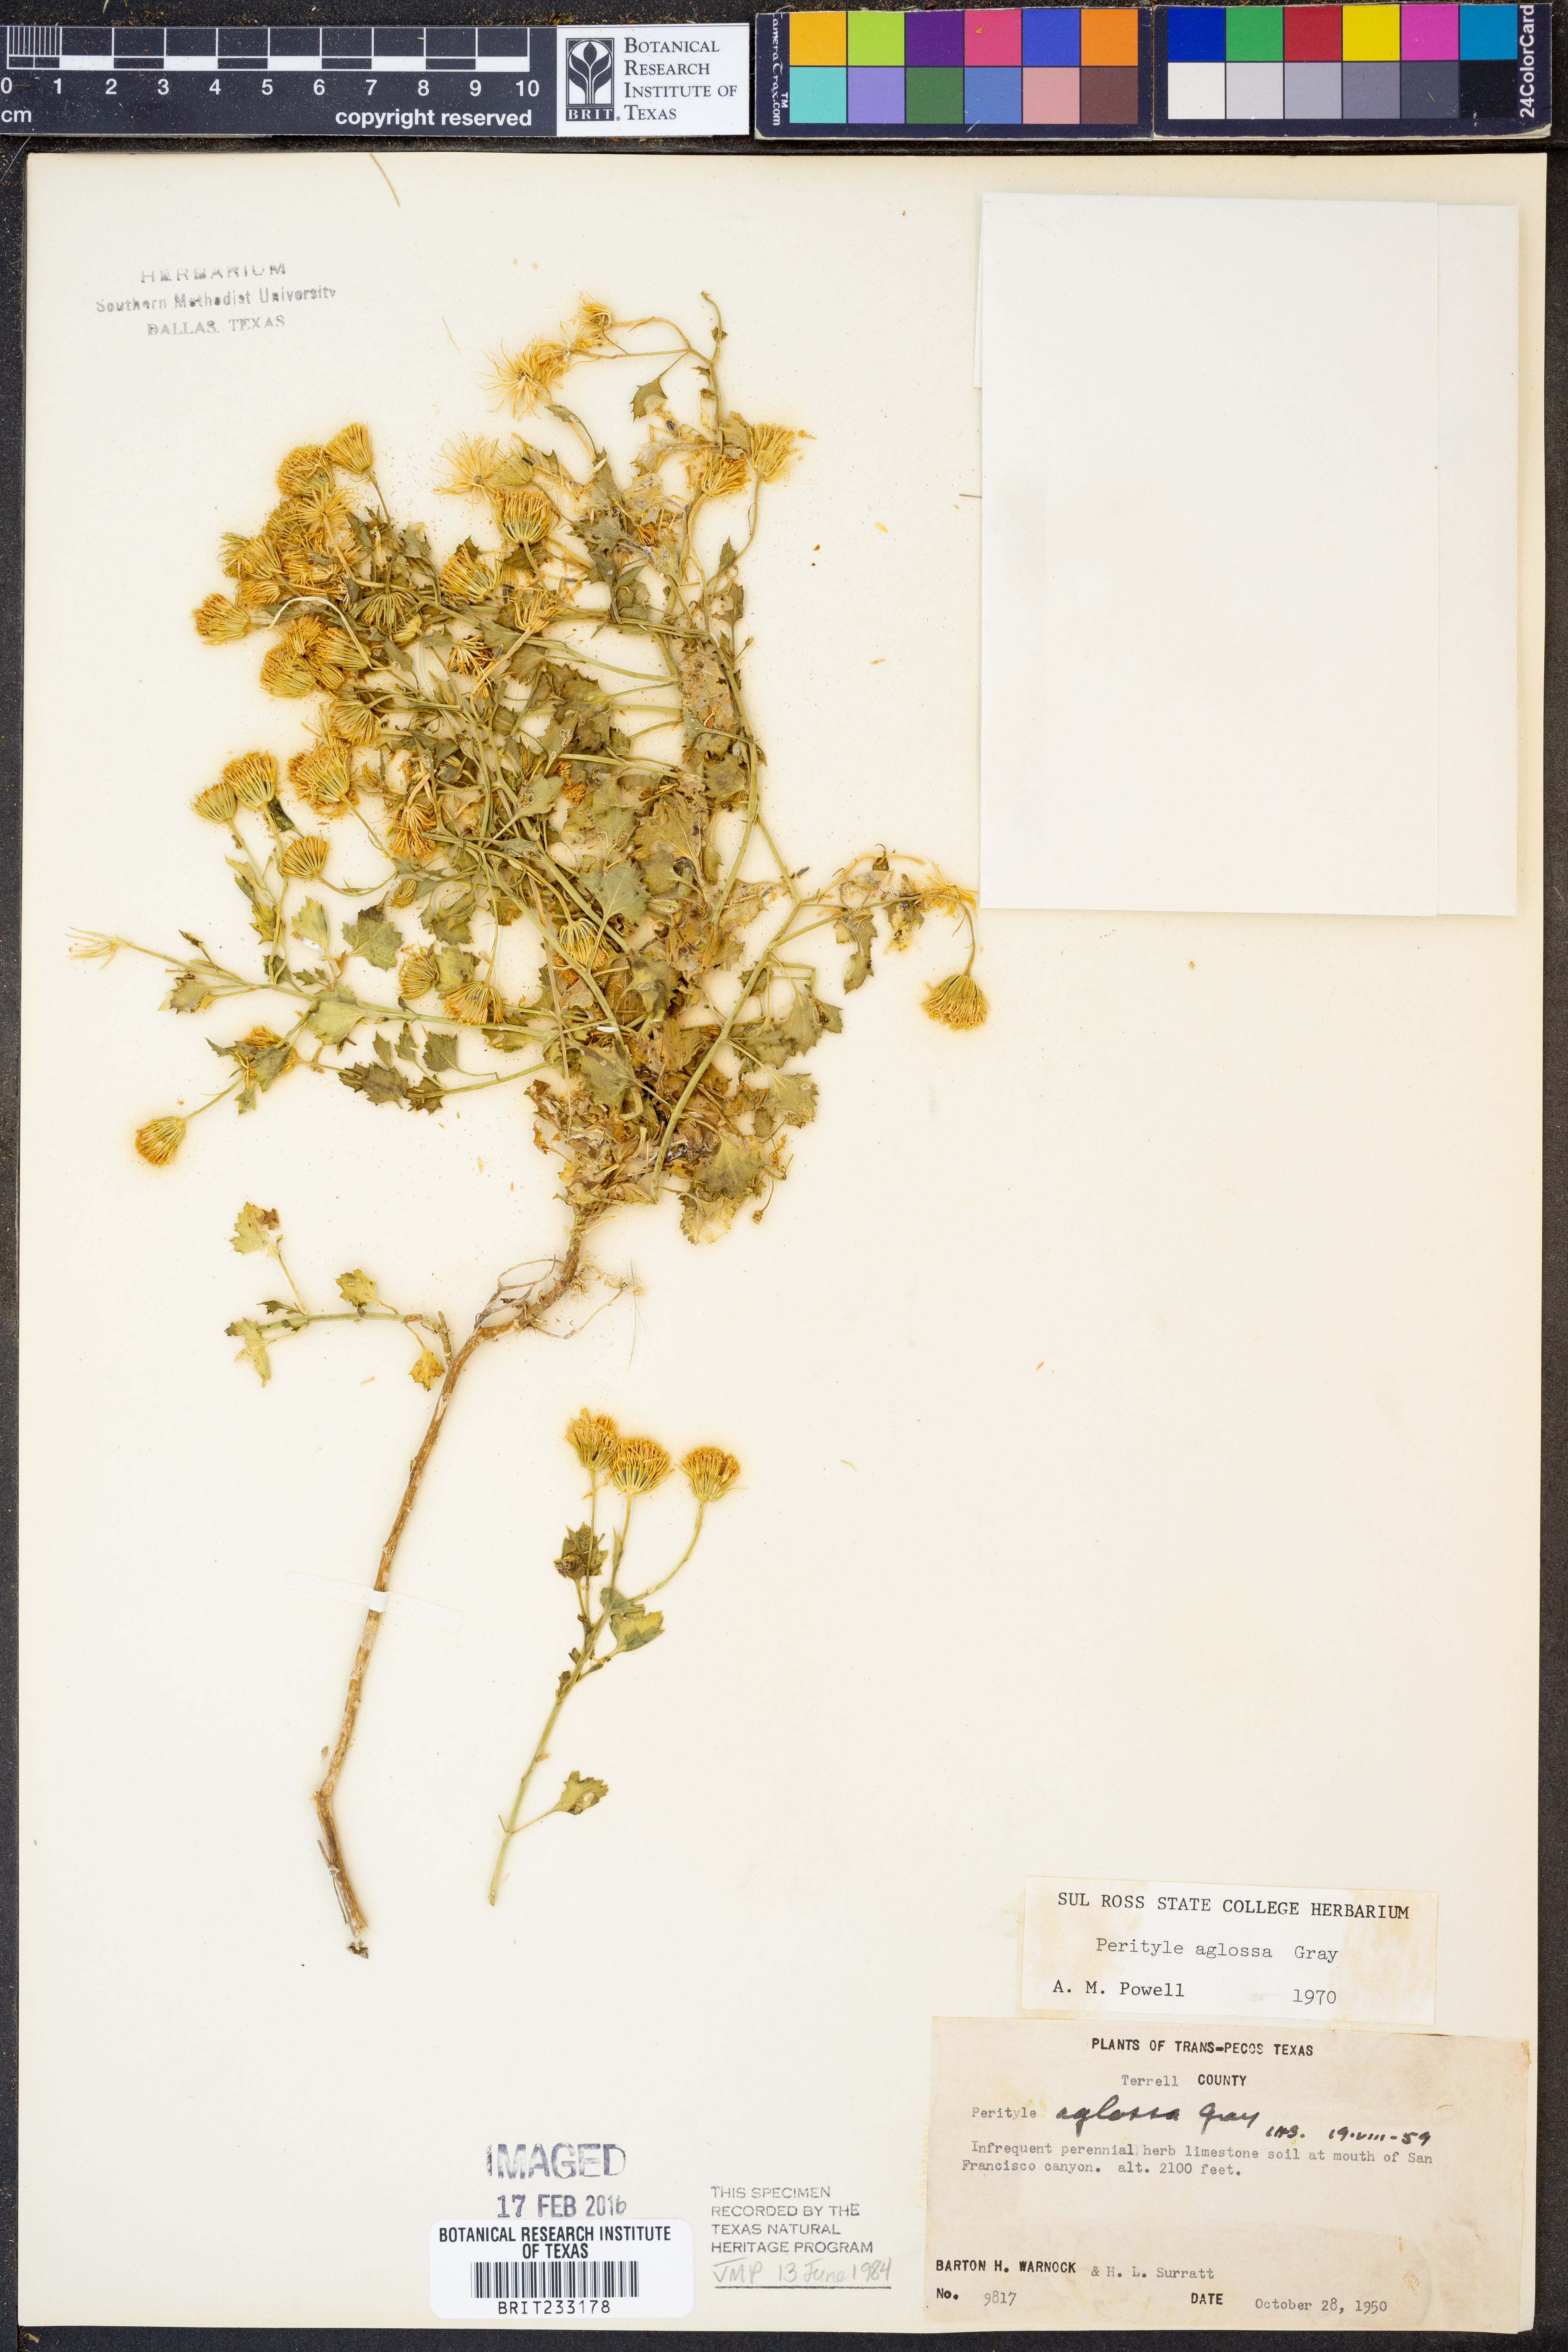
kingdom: Plantae
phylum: Tracheophyta
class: Magnoliopsida
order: Asterales
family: Asteraceae
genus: Laphamia
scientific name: Laphamia aglossa
